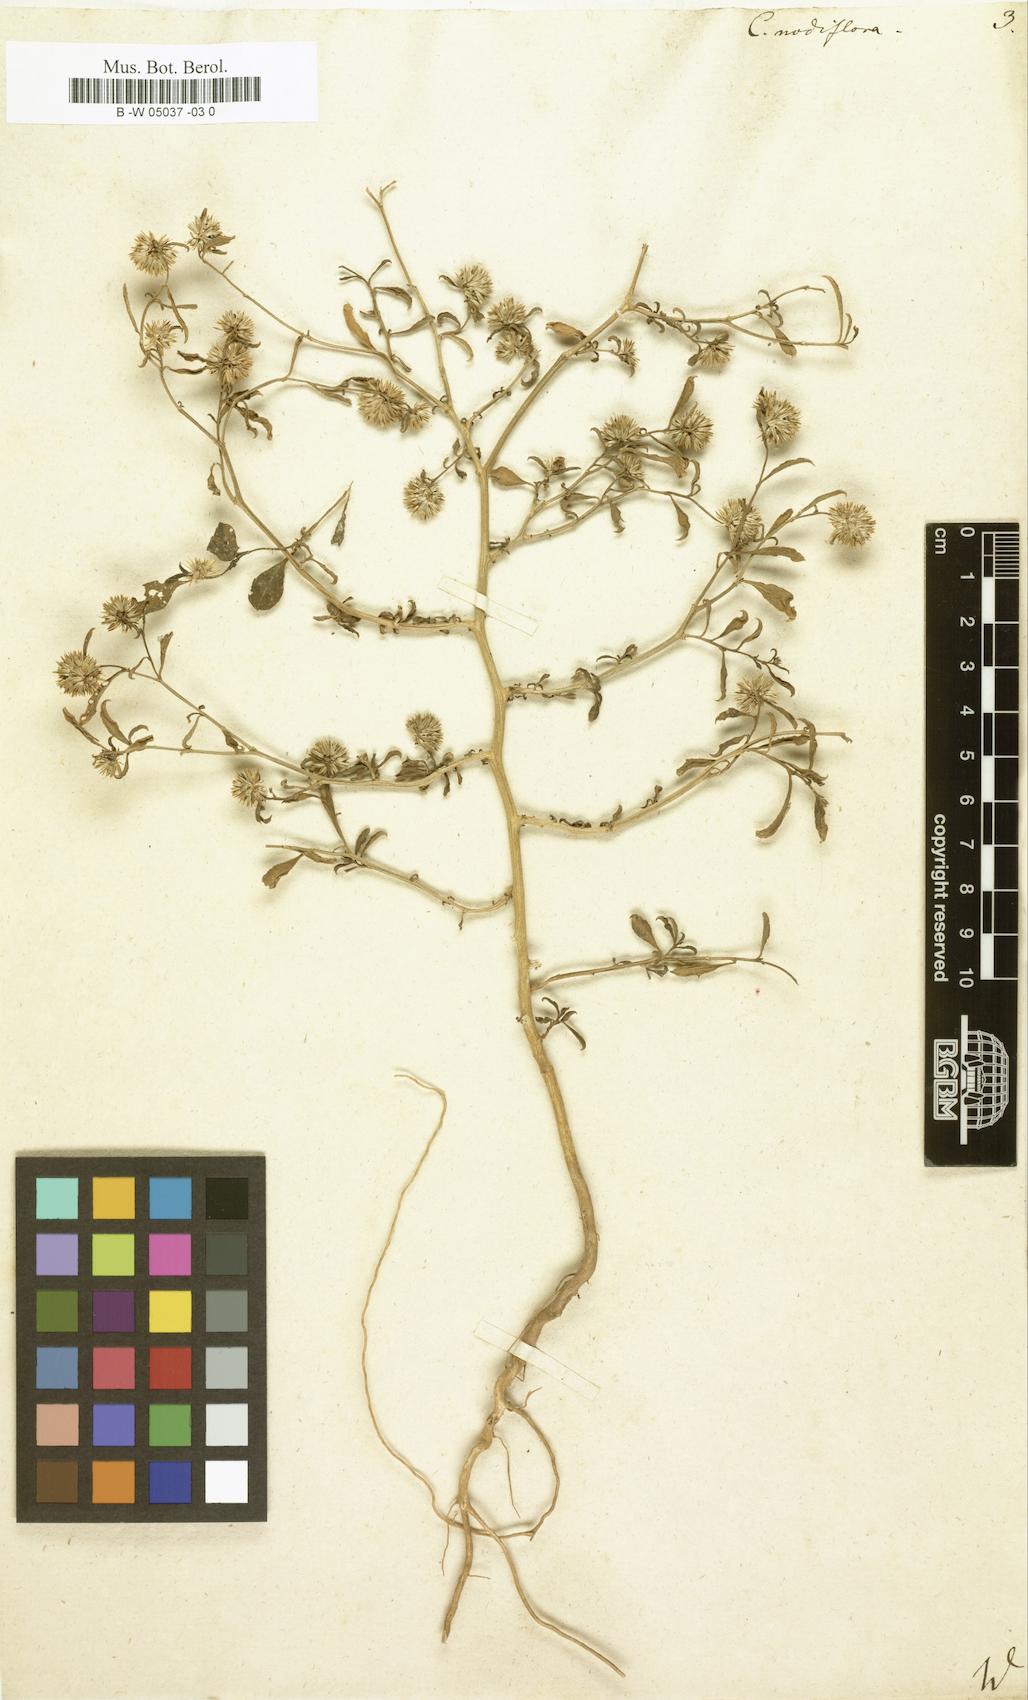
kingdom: Plantae
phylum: Tracheophyta
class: Magnoliopsida
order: Caryophyllales
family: Amaranthaceae
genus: Allmania
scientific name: Allmania nodiflora
